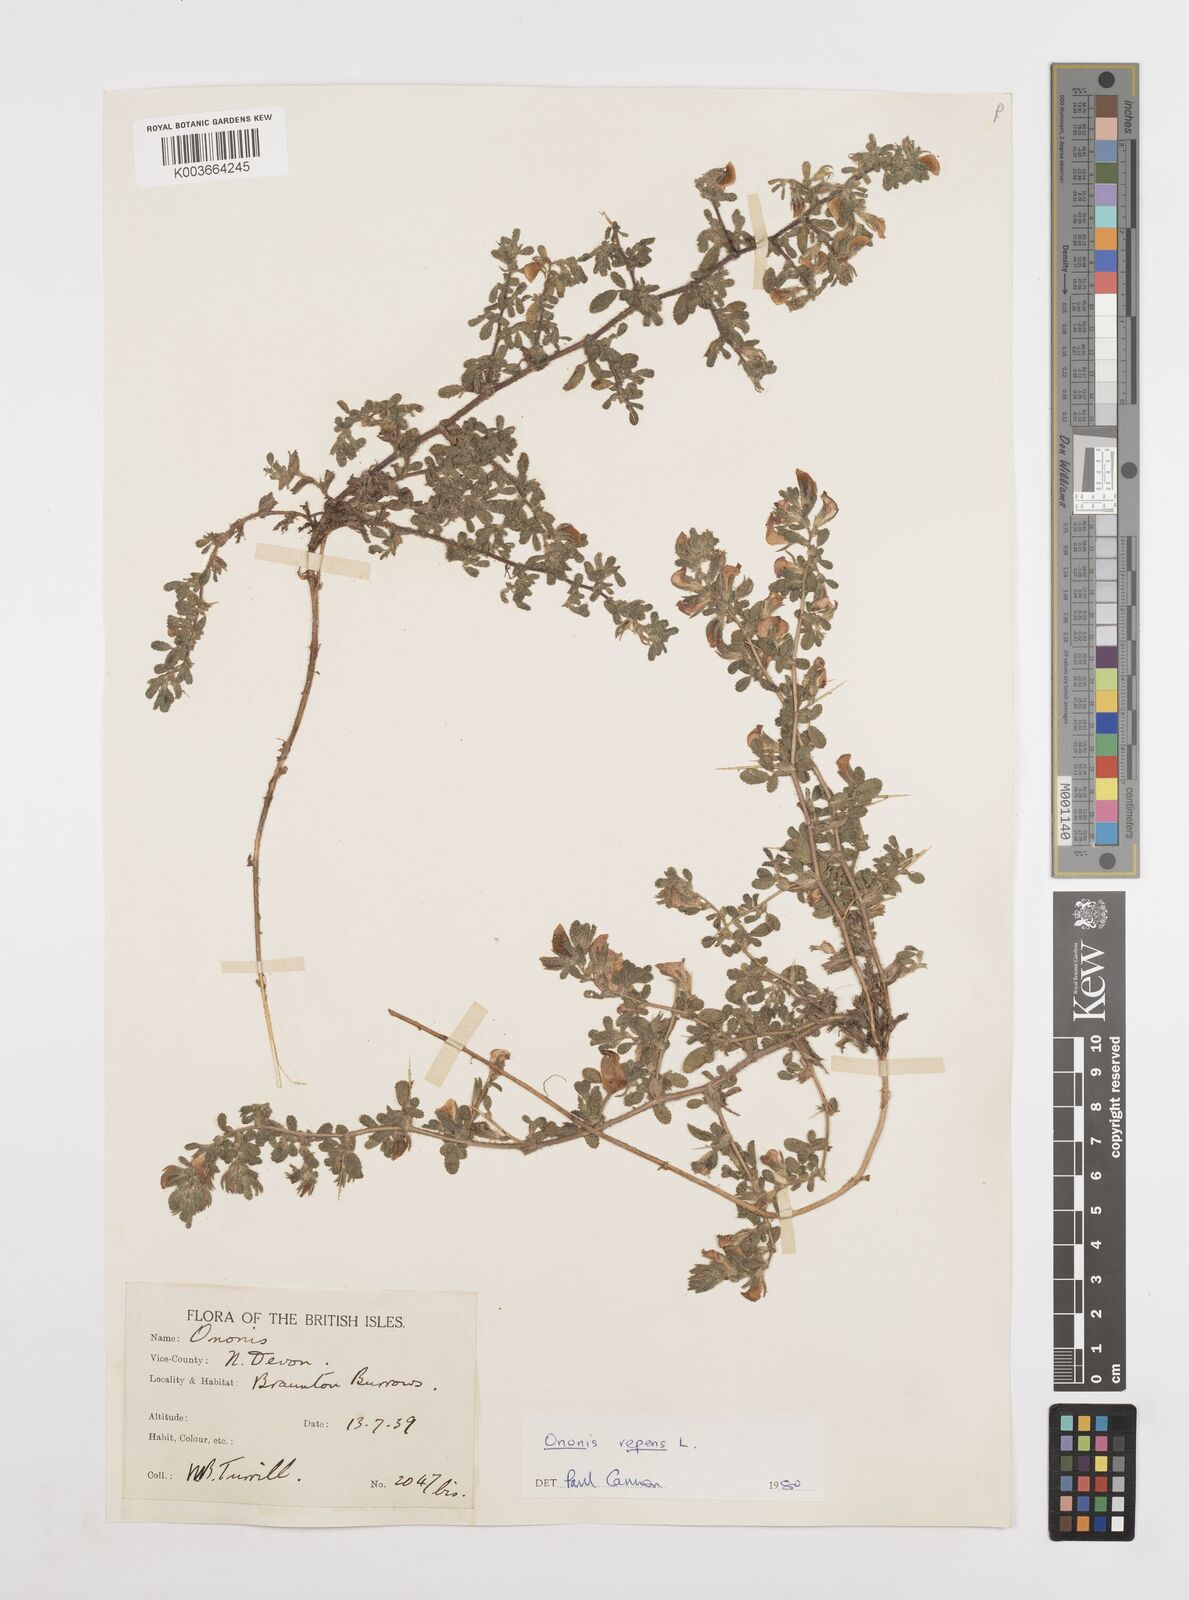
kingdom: Plantae
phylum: Tracheophyta
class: Magnoliopsida
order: Fabales
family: Fabaceae
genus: Ononis
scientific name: Ononis spinosa
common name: Spiny restharrow
